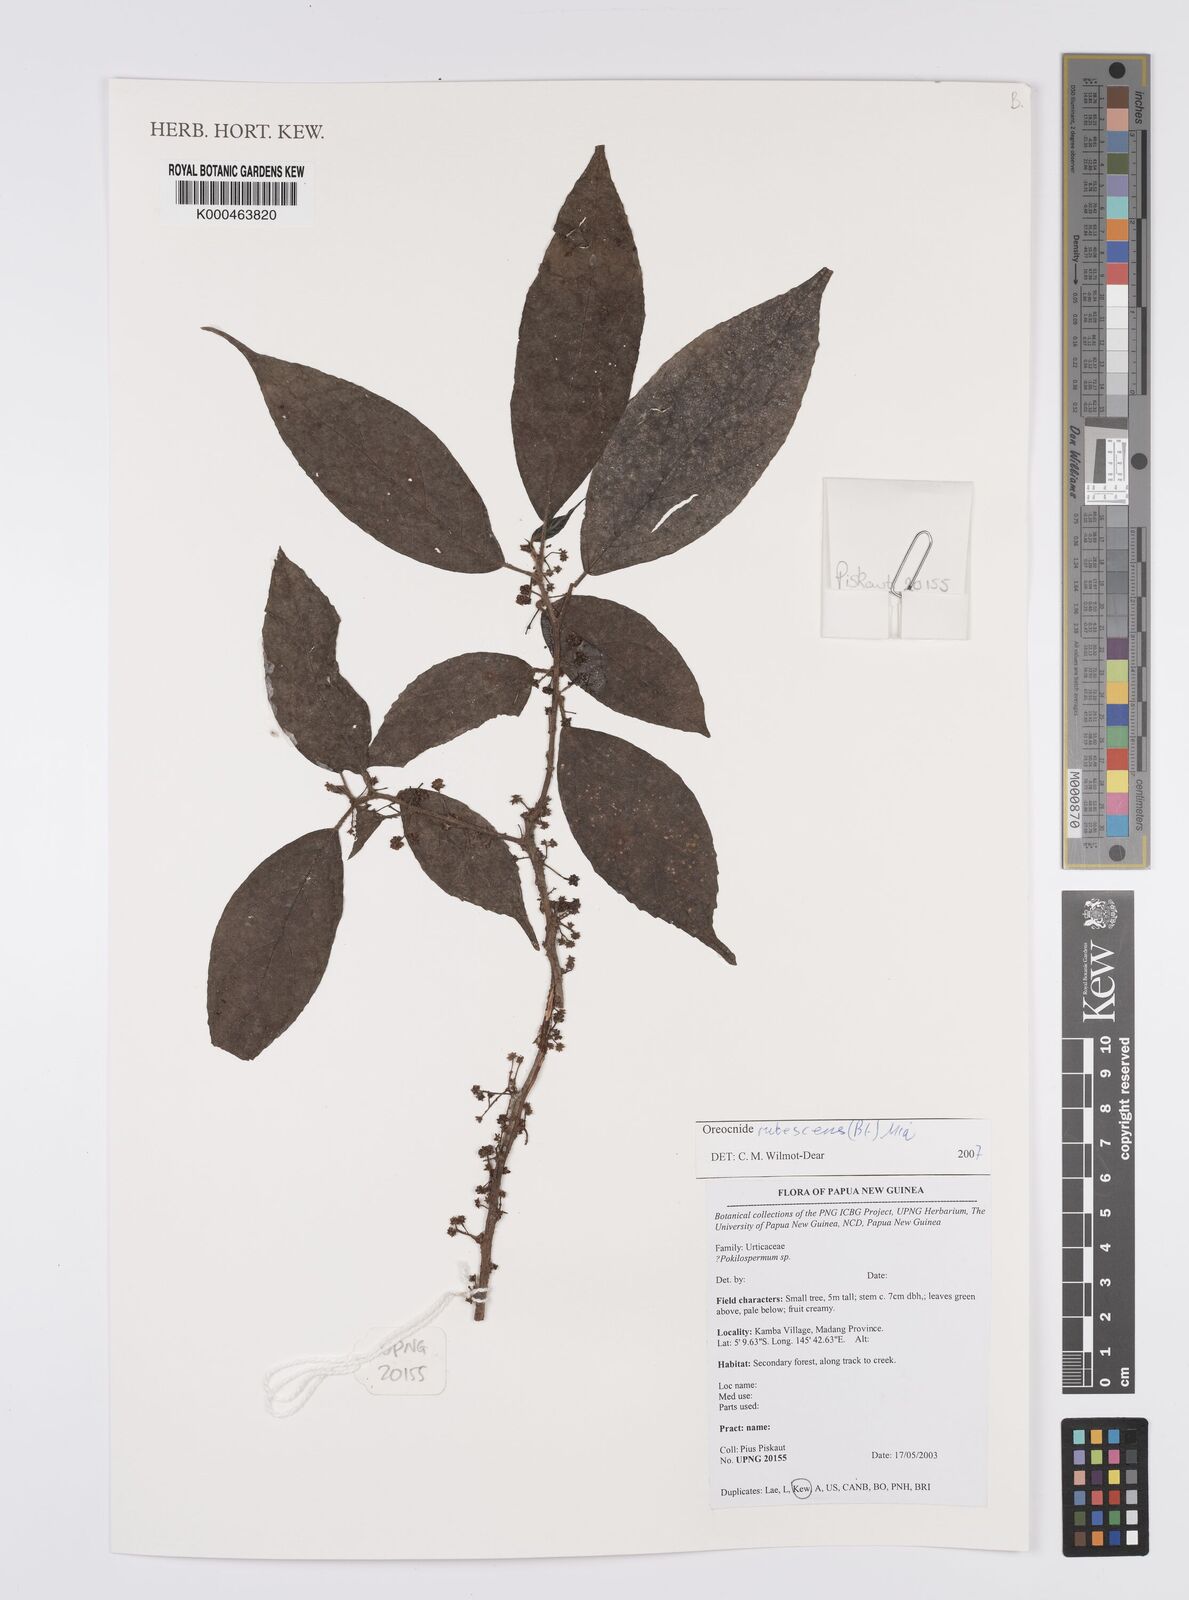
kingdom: Plantae
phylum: Tracheophyta
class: Magnoliopsida
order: Rosales
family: Urticaceae
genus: Oreocnide
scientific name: Oreocnide rubescens
